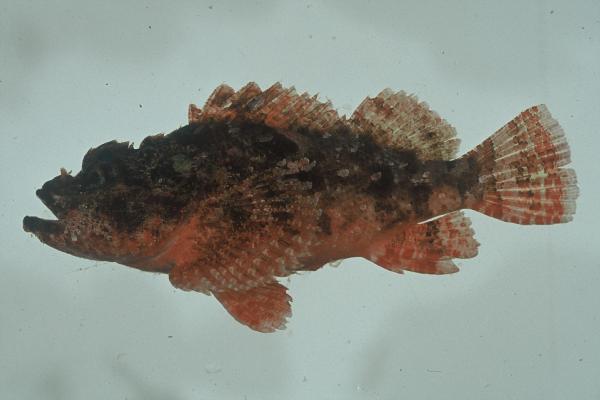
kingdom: Animalia
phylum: Chordata
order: Scorpaeniformes
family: Scorpaenidae
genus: Scorpaenopsis
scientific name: Scorpaenopsis possi
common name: Poss's scorpionfish
